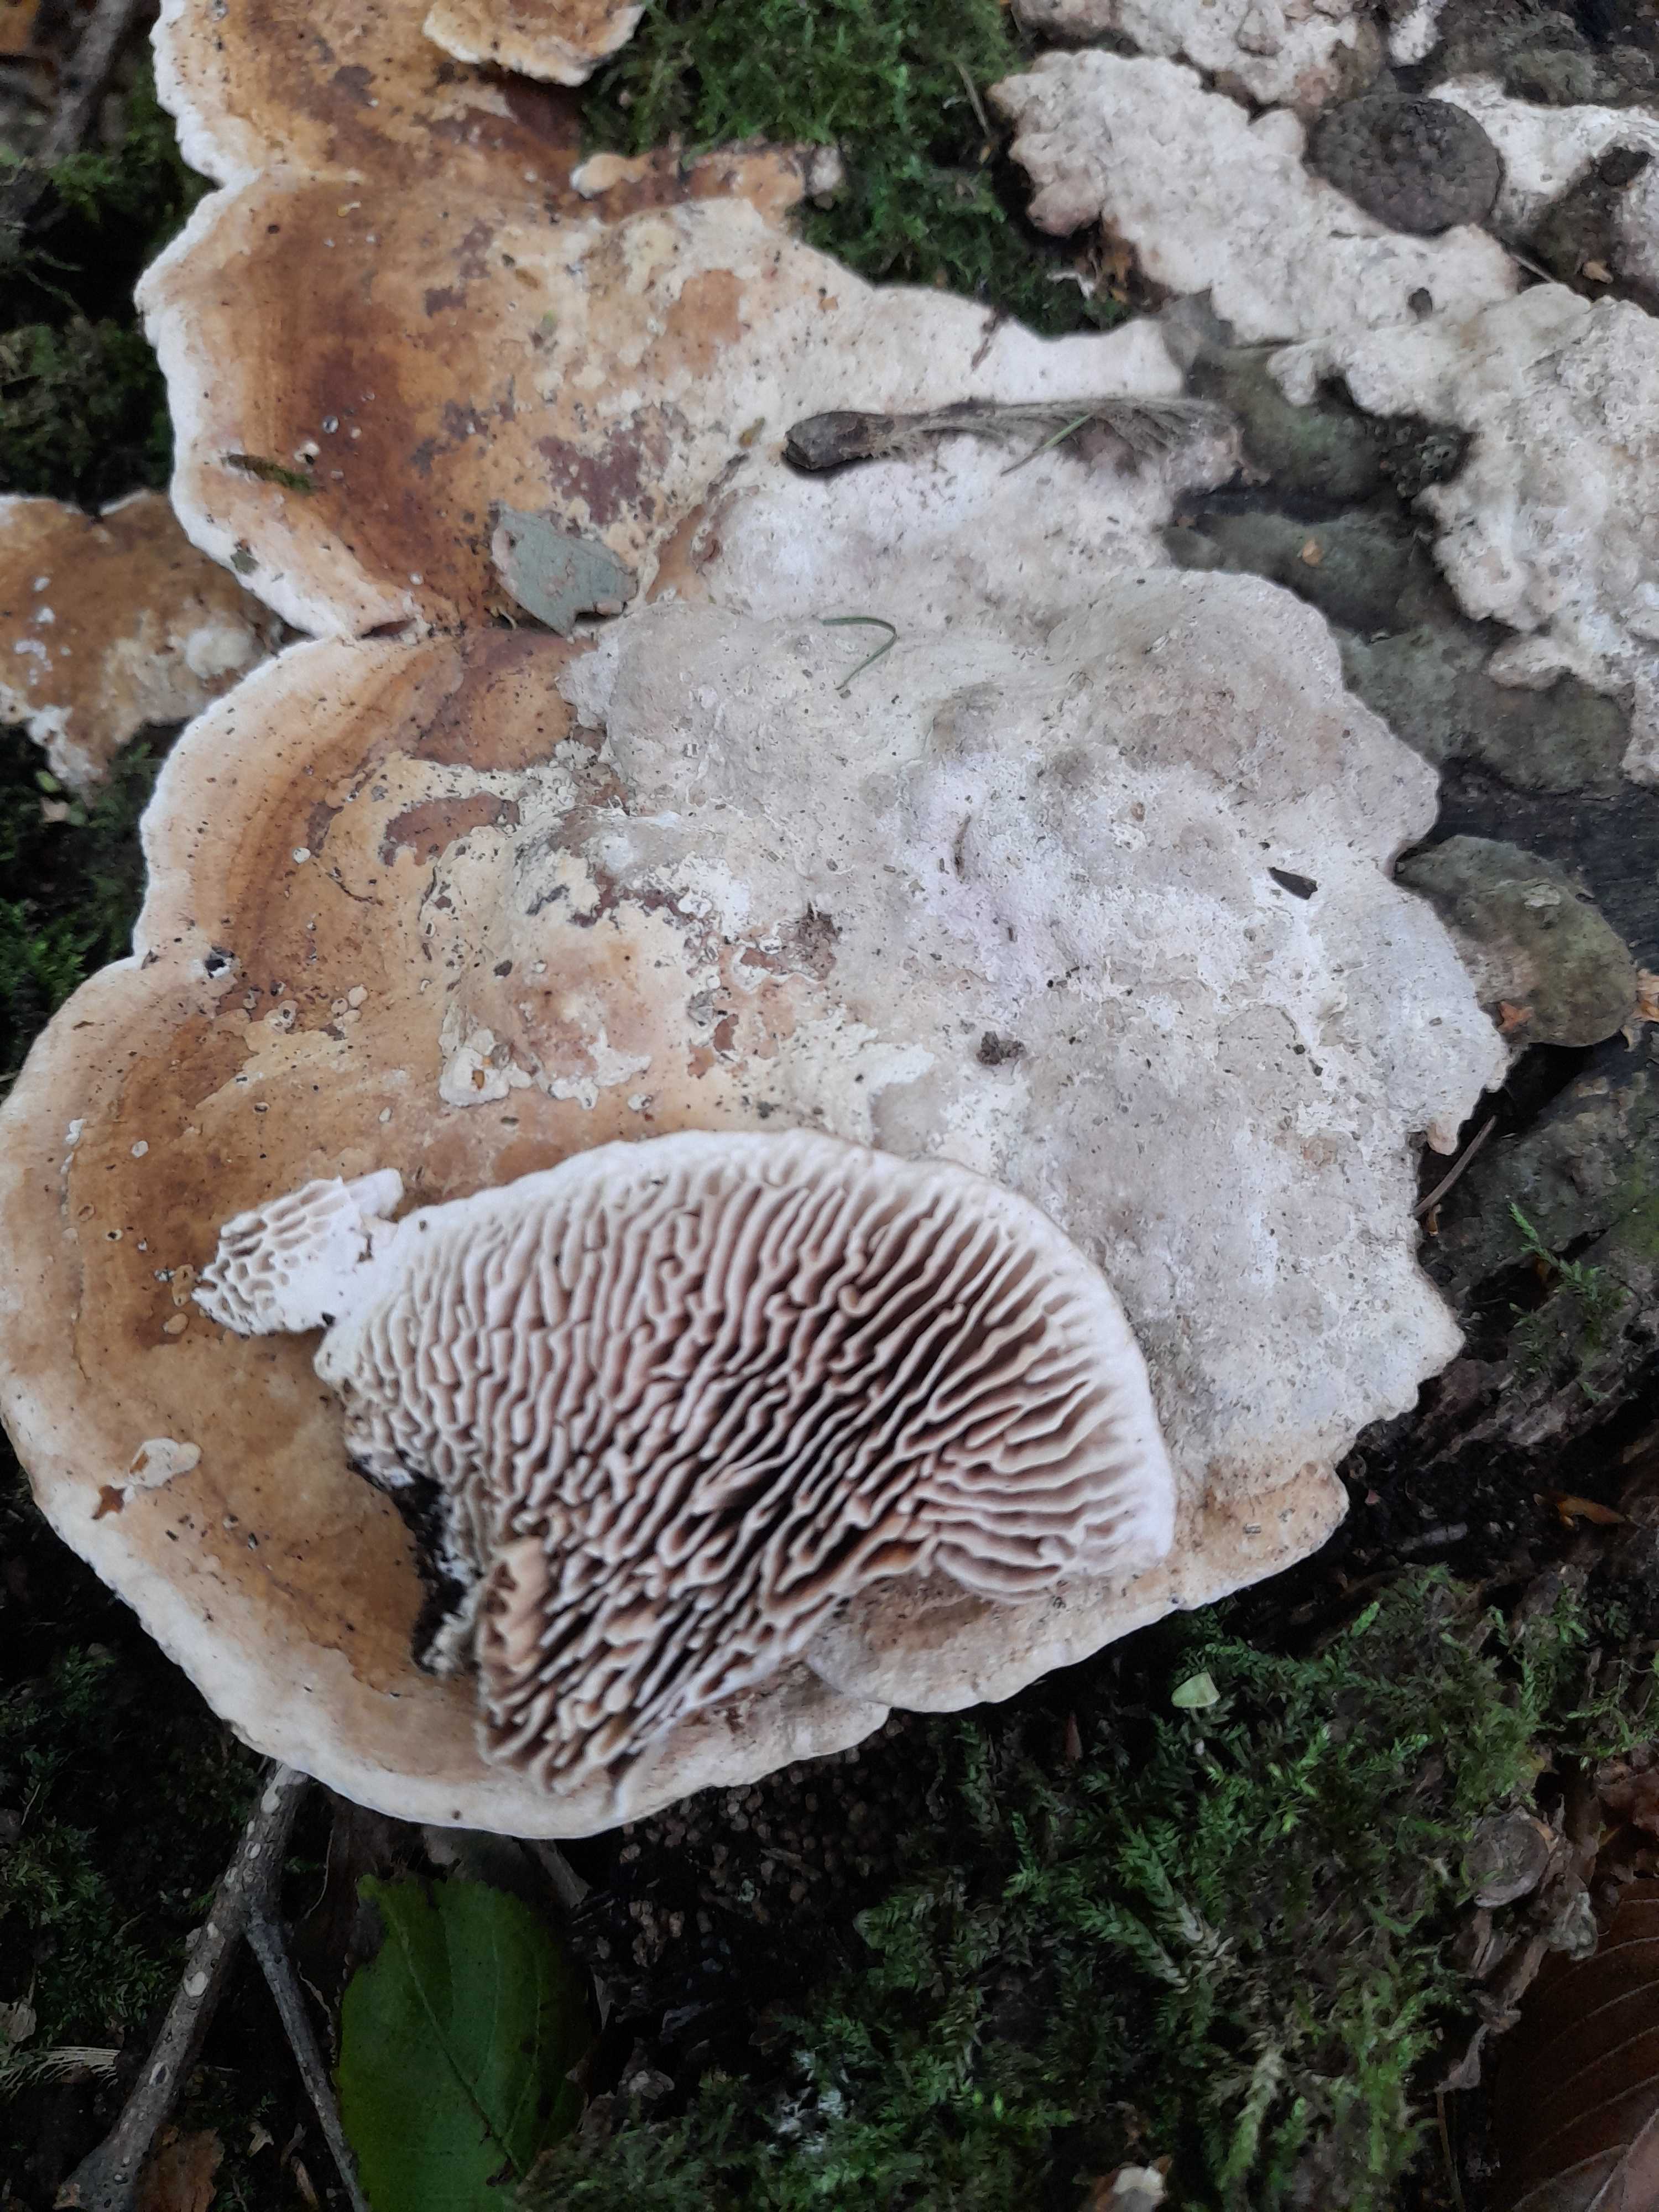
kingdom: Fungi
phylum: Basidiomycota
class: Agaricomycetes
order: Polyporales
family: Fomitopsidaceae
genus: Daedalea
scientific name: Daedalea quercina
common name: ege-labyrintsvamp
